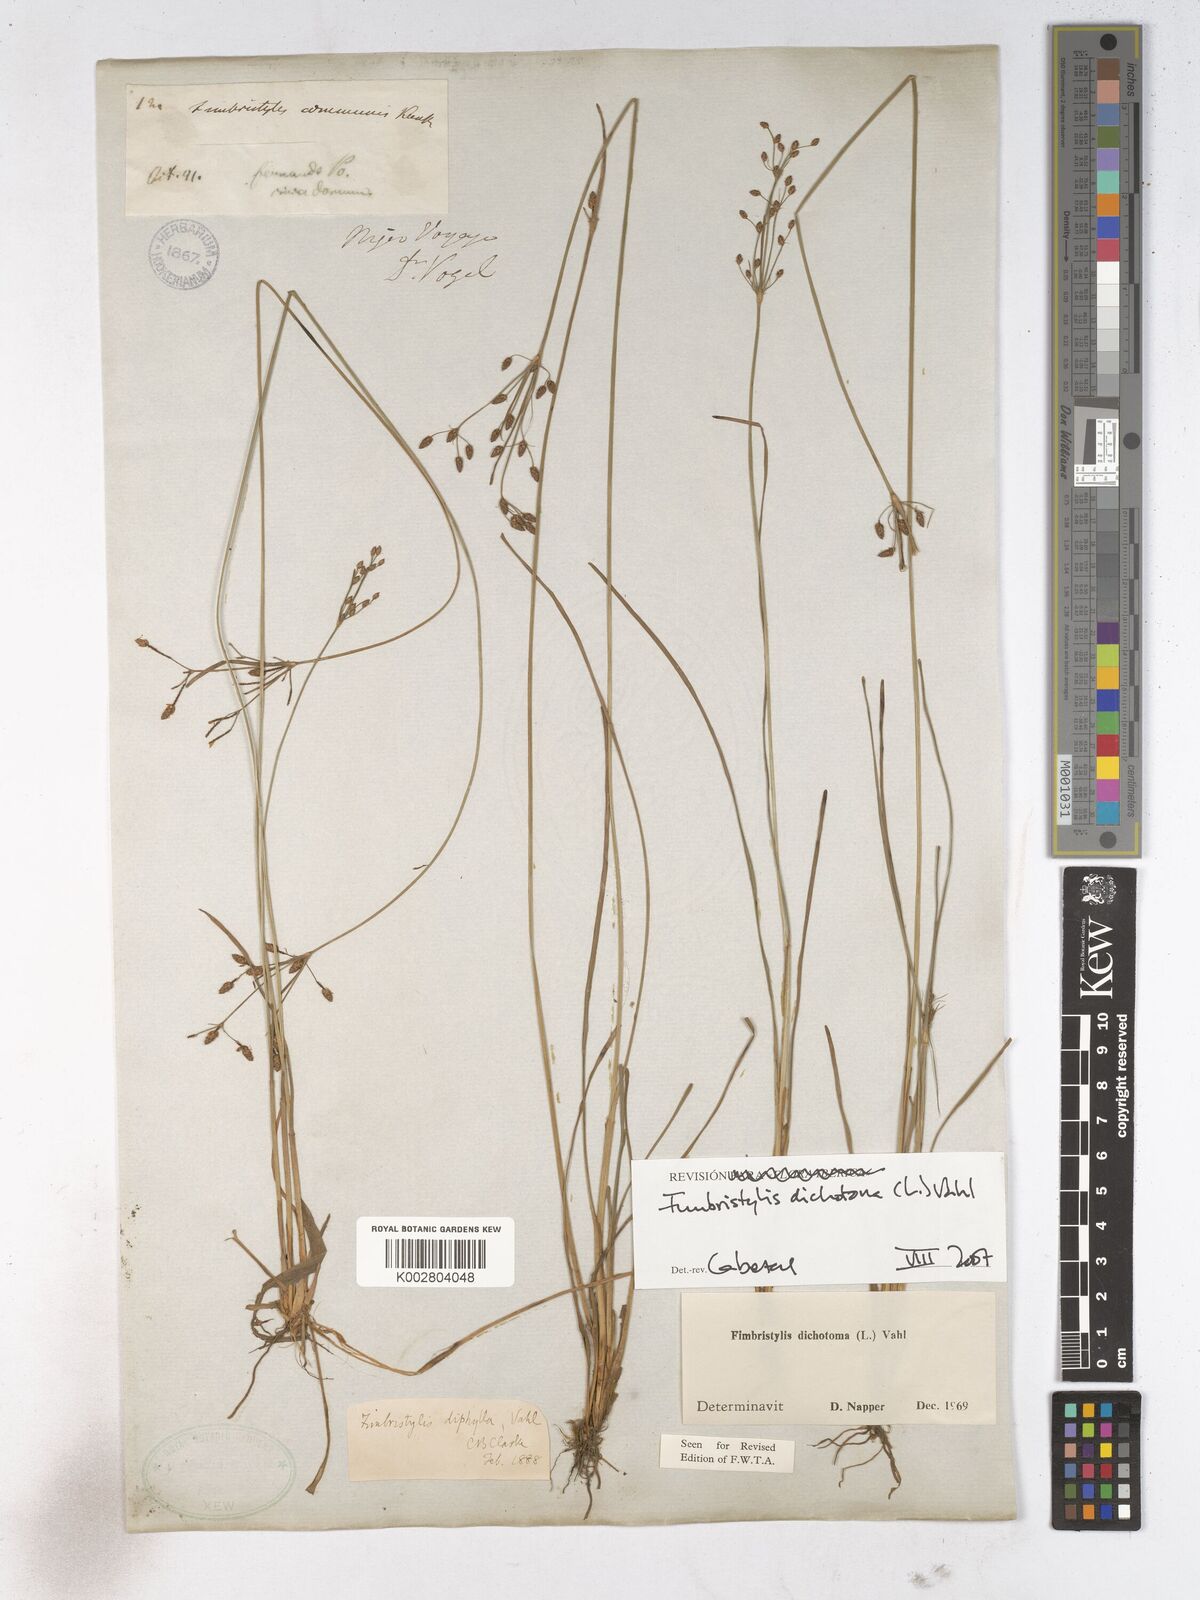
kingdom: Plantae
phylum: Tracheophyta
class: Liliopsida
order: Poales
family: Cyperaceae
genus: Fimbristylis
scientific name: Fimbristylis dichotoma
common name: Forked fimbry
